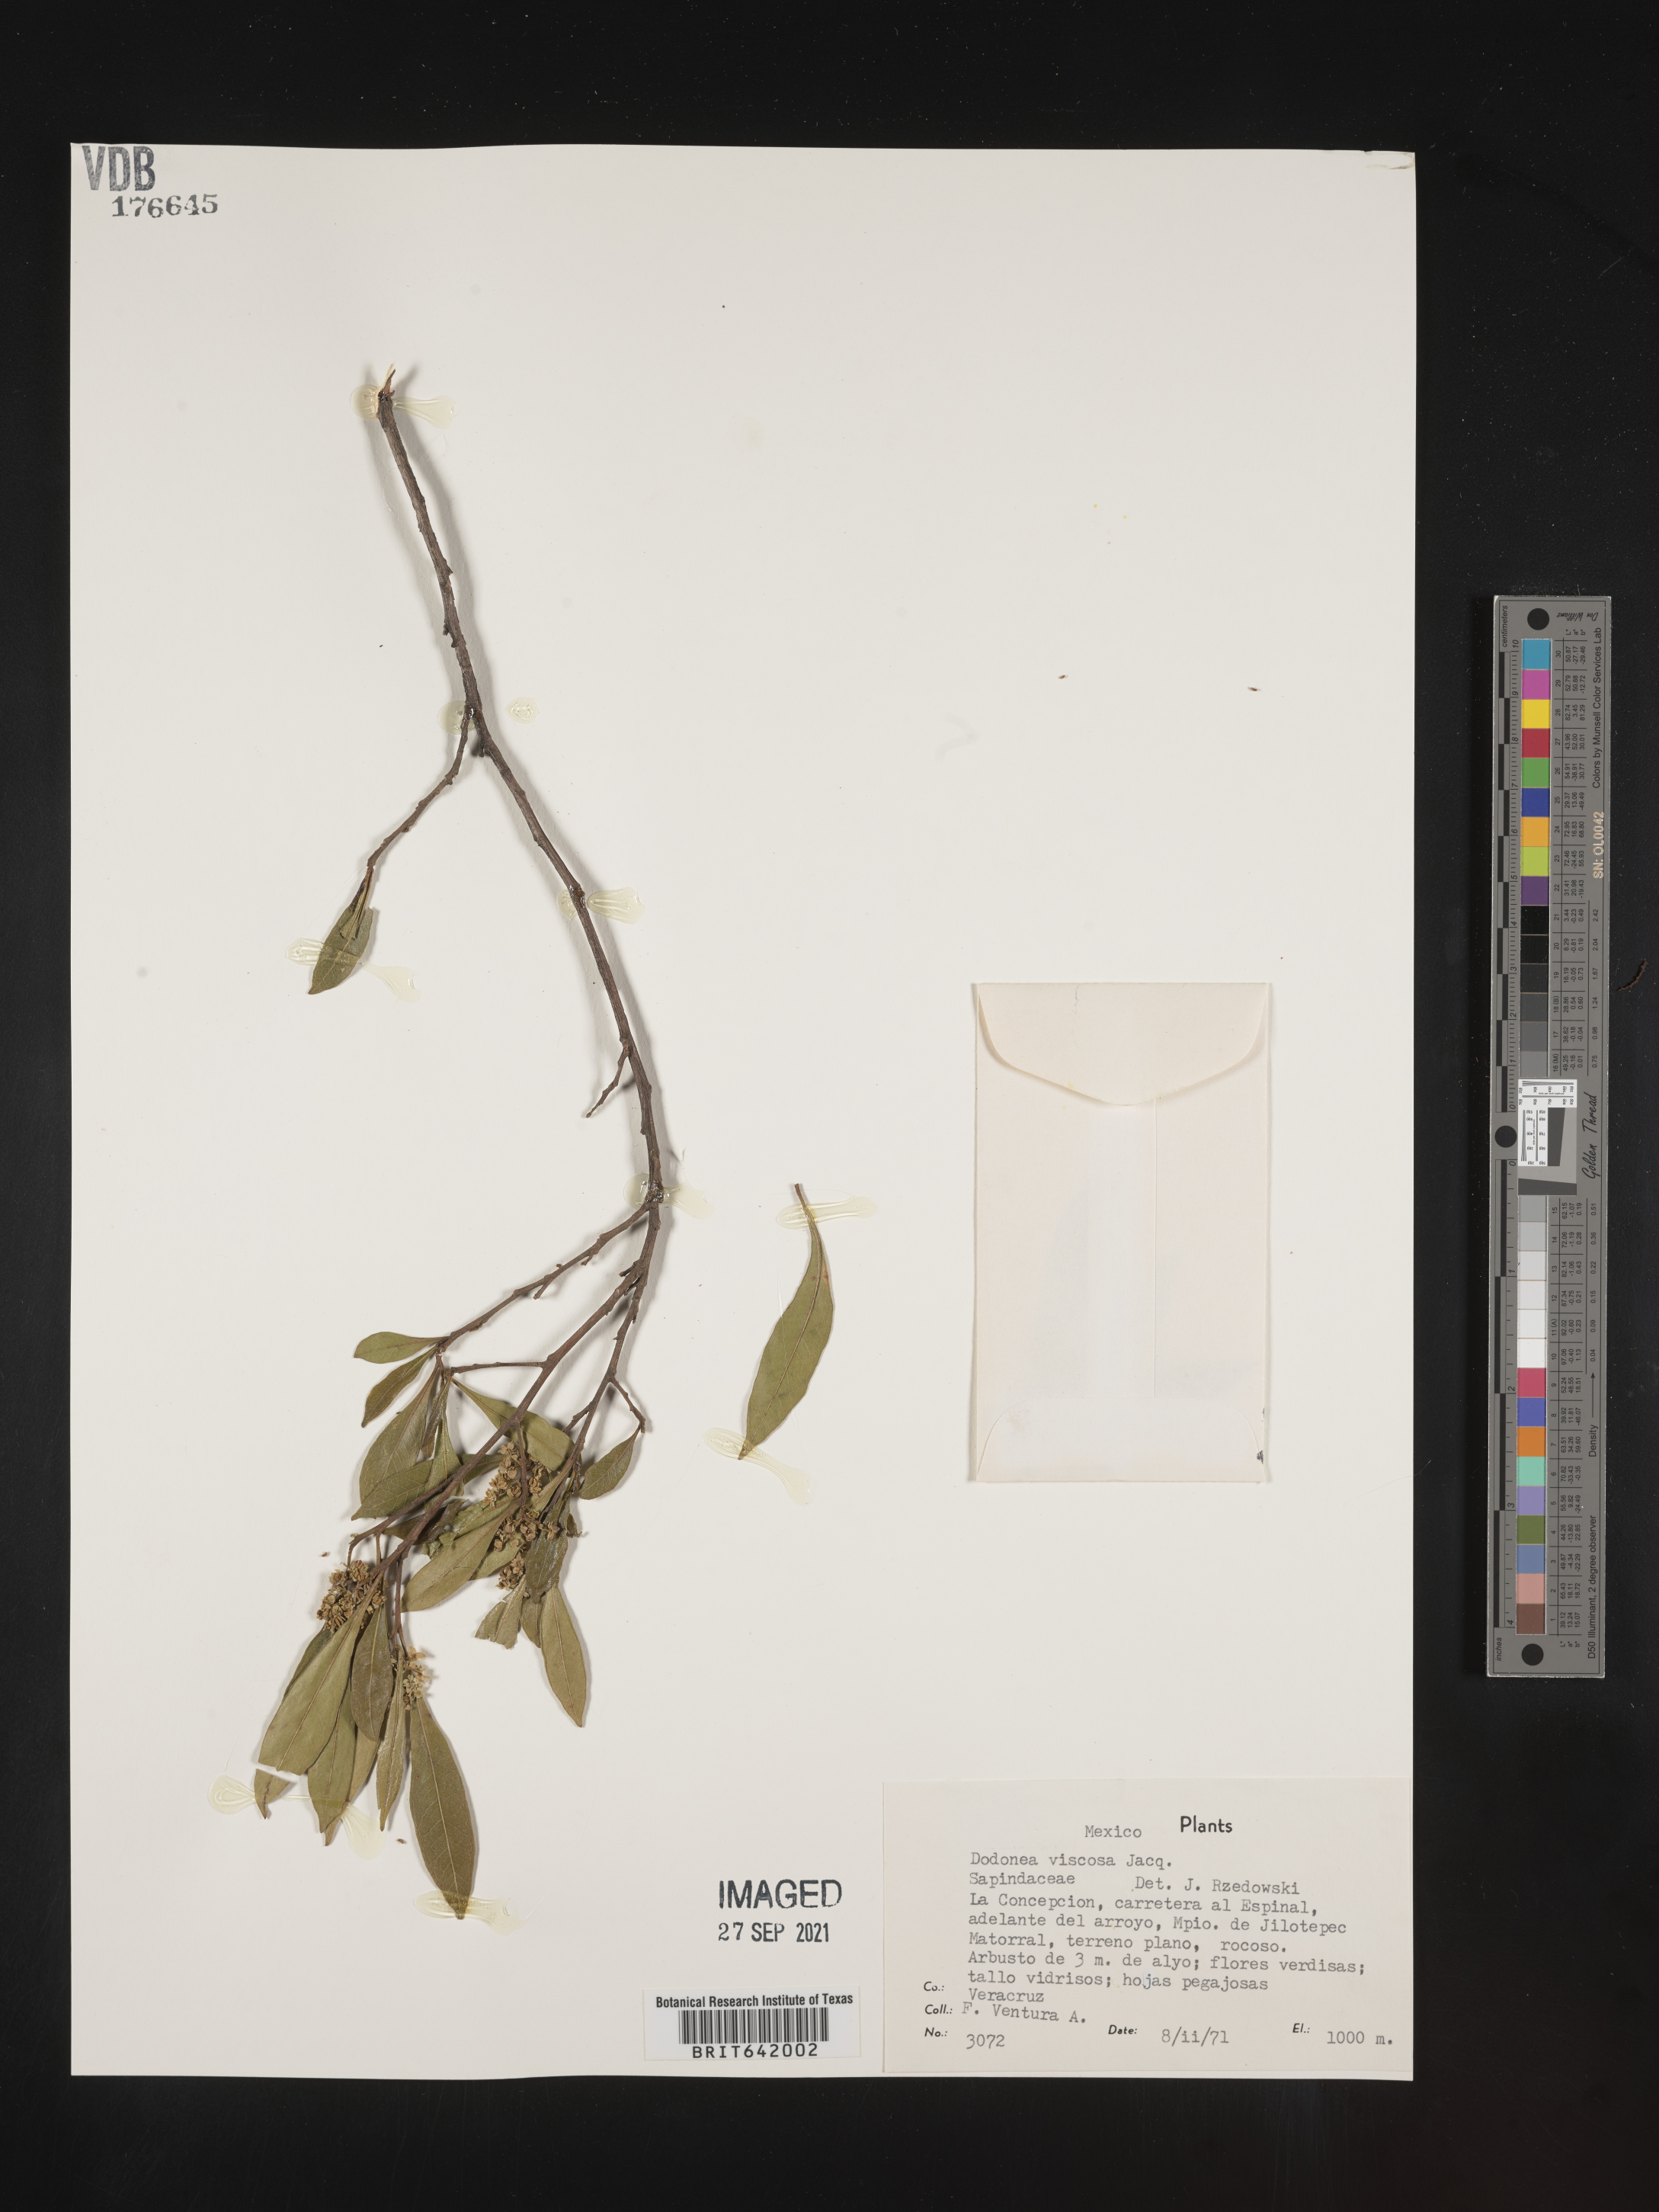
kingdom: Plantae
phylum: Tracheophyta
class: Magnoliopsida
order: Sapindales
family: Sapindaceae
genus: Dodonaea
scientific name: Dodonaea
